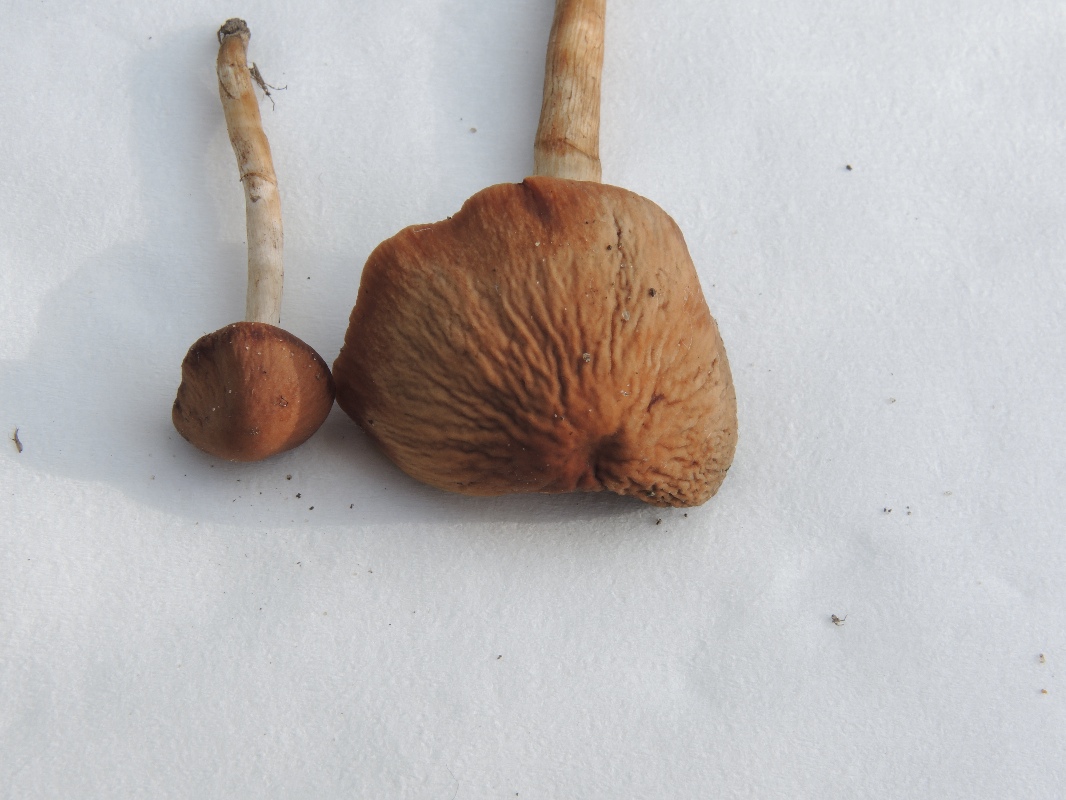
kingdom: Fungi
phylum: Basidiomycota
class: Agaricomycetes
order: Agaricales
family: Hymenogastraceae
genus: Naucoria
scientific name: Naucoria bohemica
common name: birke-knaphat
